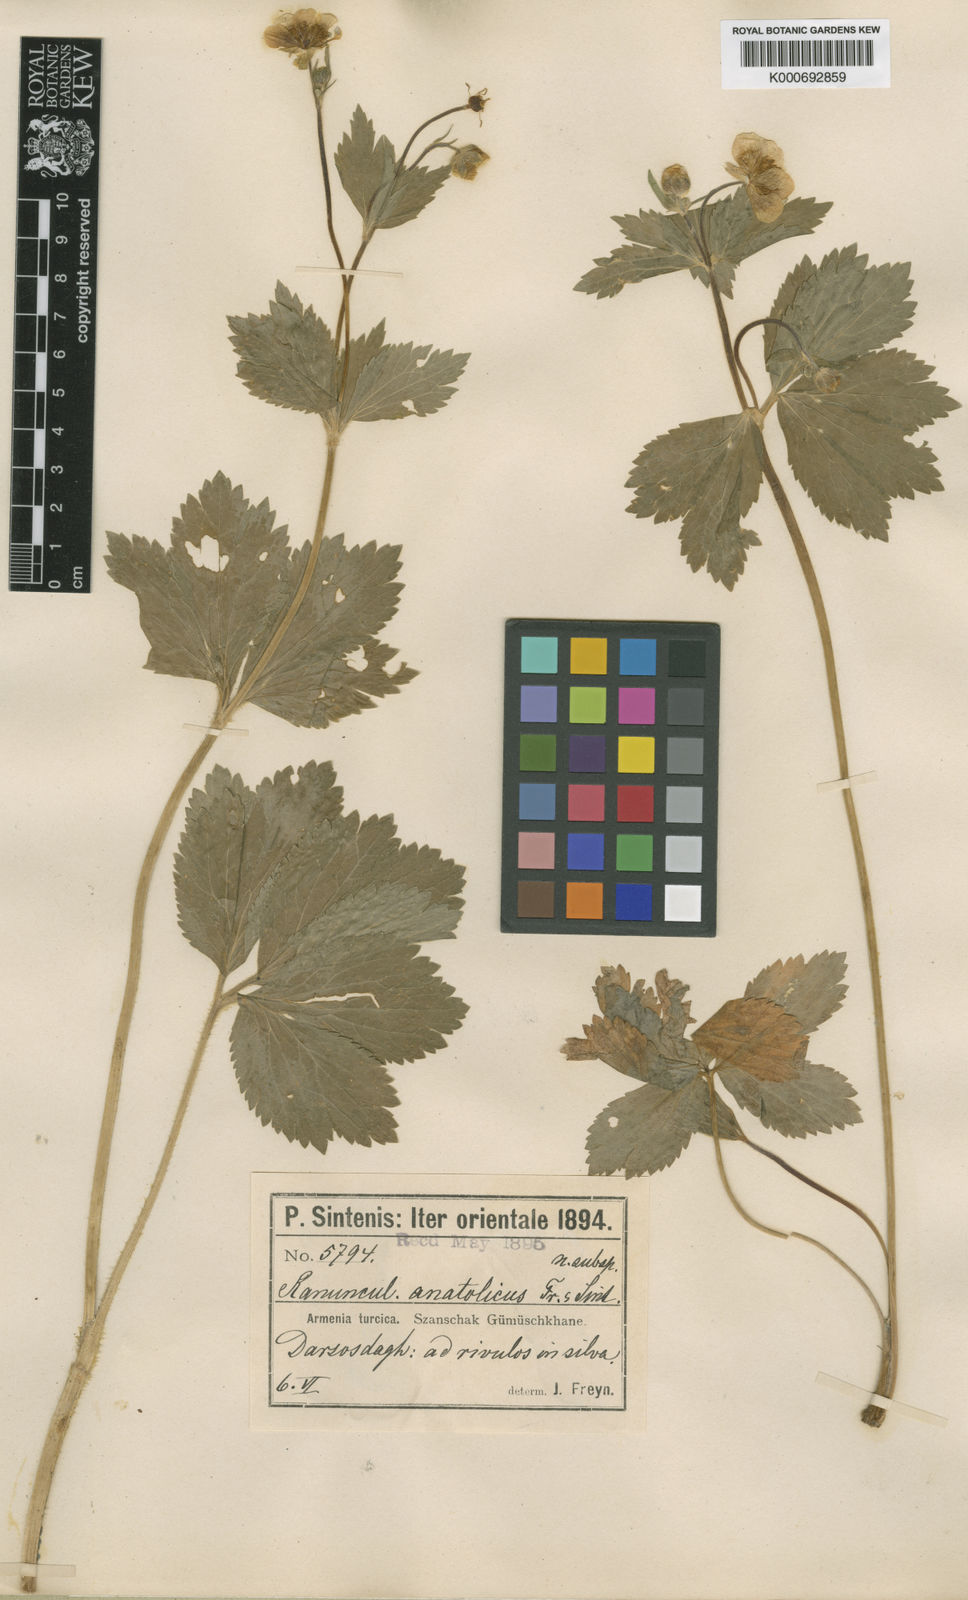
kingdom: Plantae
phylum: Tracheophyta
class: Magnoliopsida
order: Ranunculales
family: Ranunculaceae
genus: Ranunculus
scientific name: Ranunculus brutius
